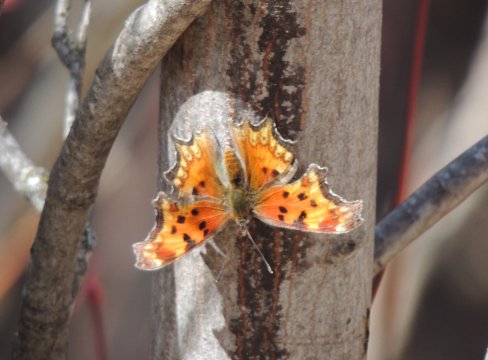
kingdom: Animalia
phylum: Arthropoda
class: Insecta
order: Lepidoptera
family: Nymphalidae
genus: Polygonia
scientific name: Polygonia gracilis
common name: Hoary Comma
